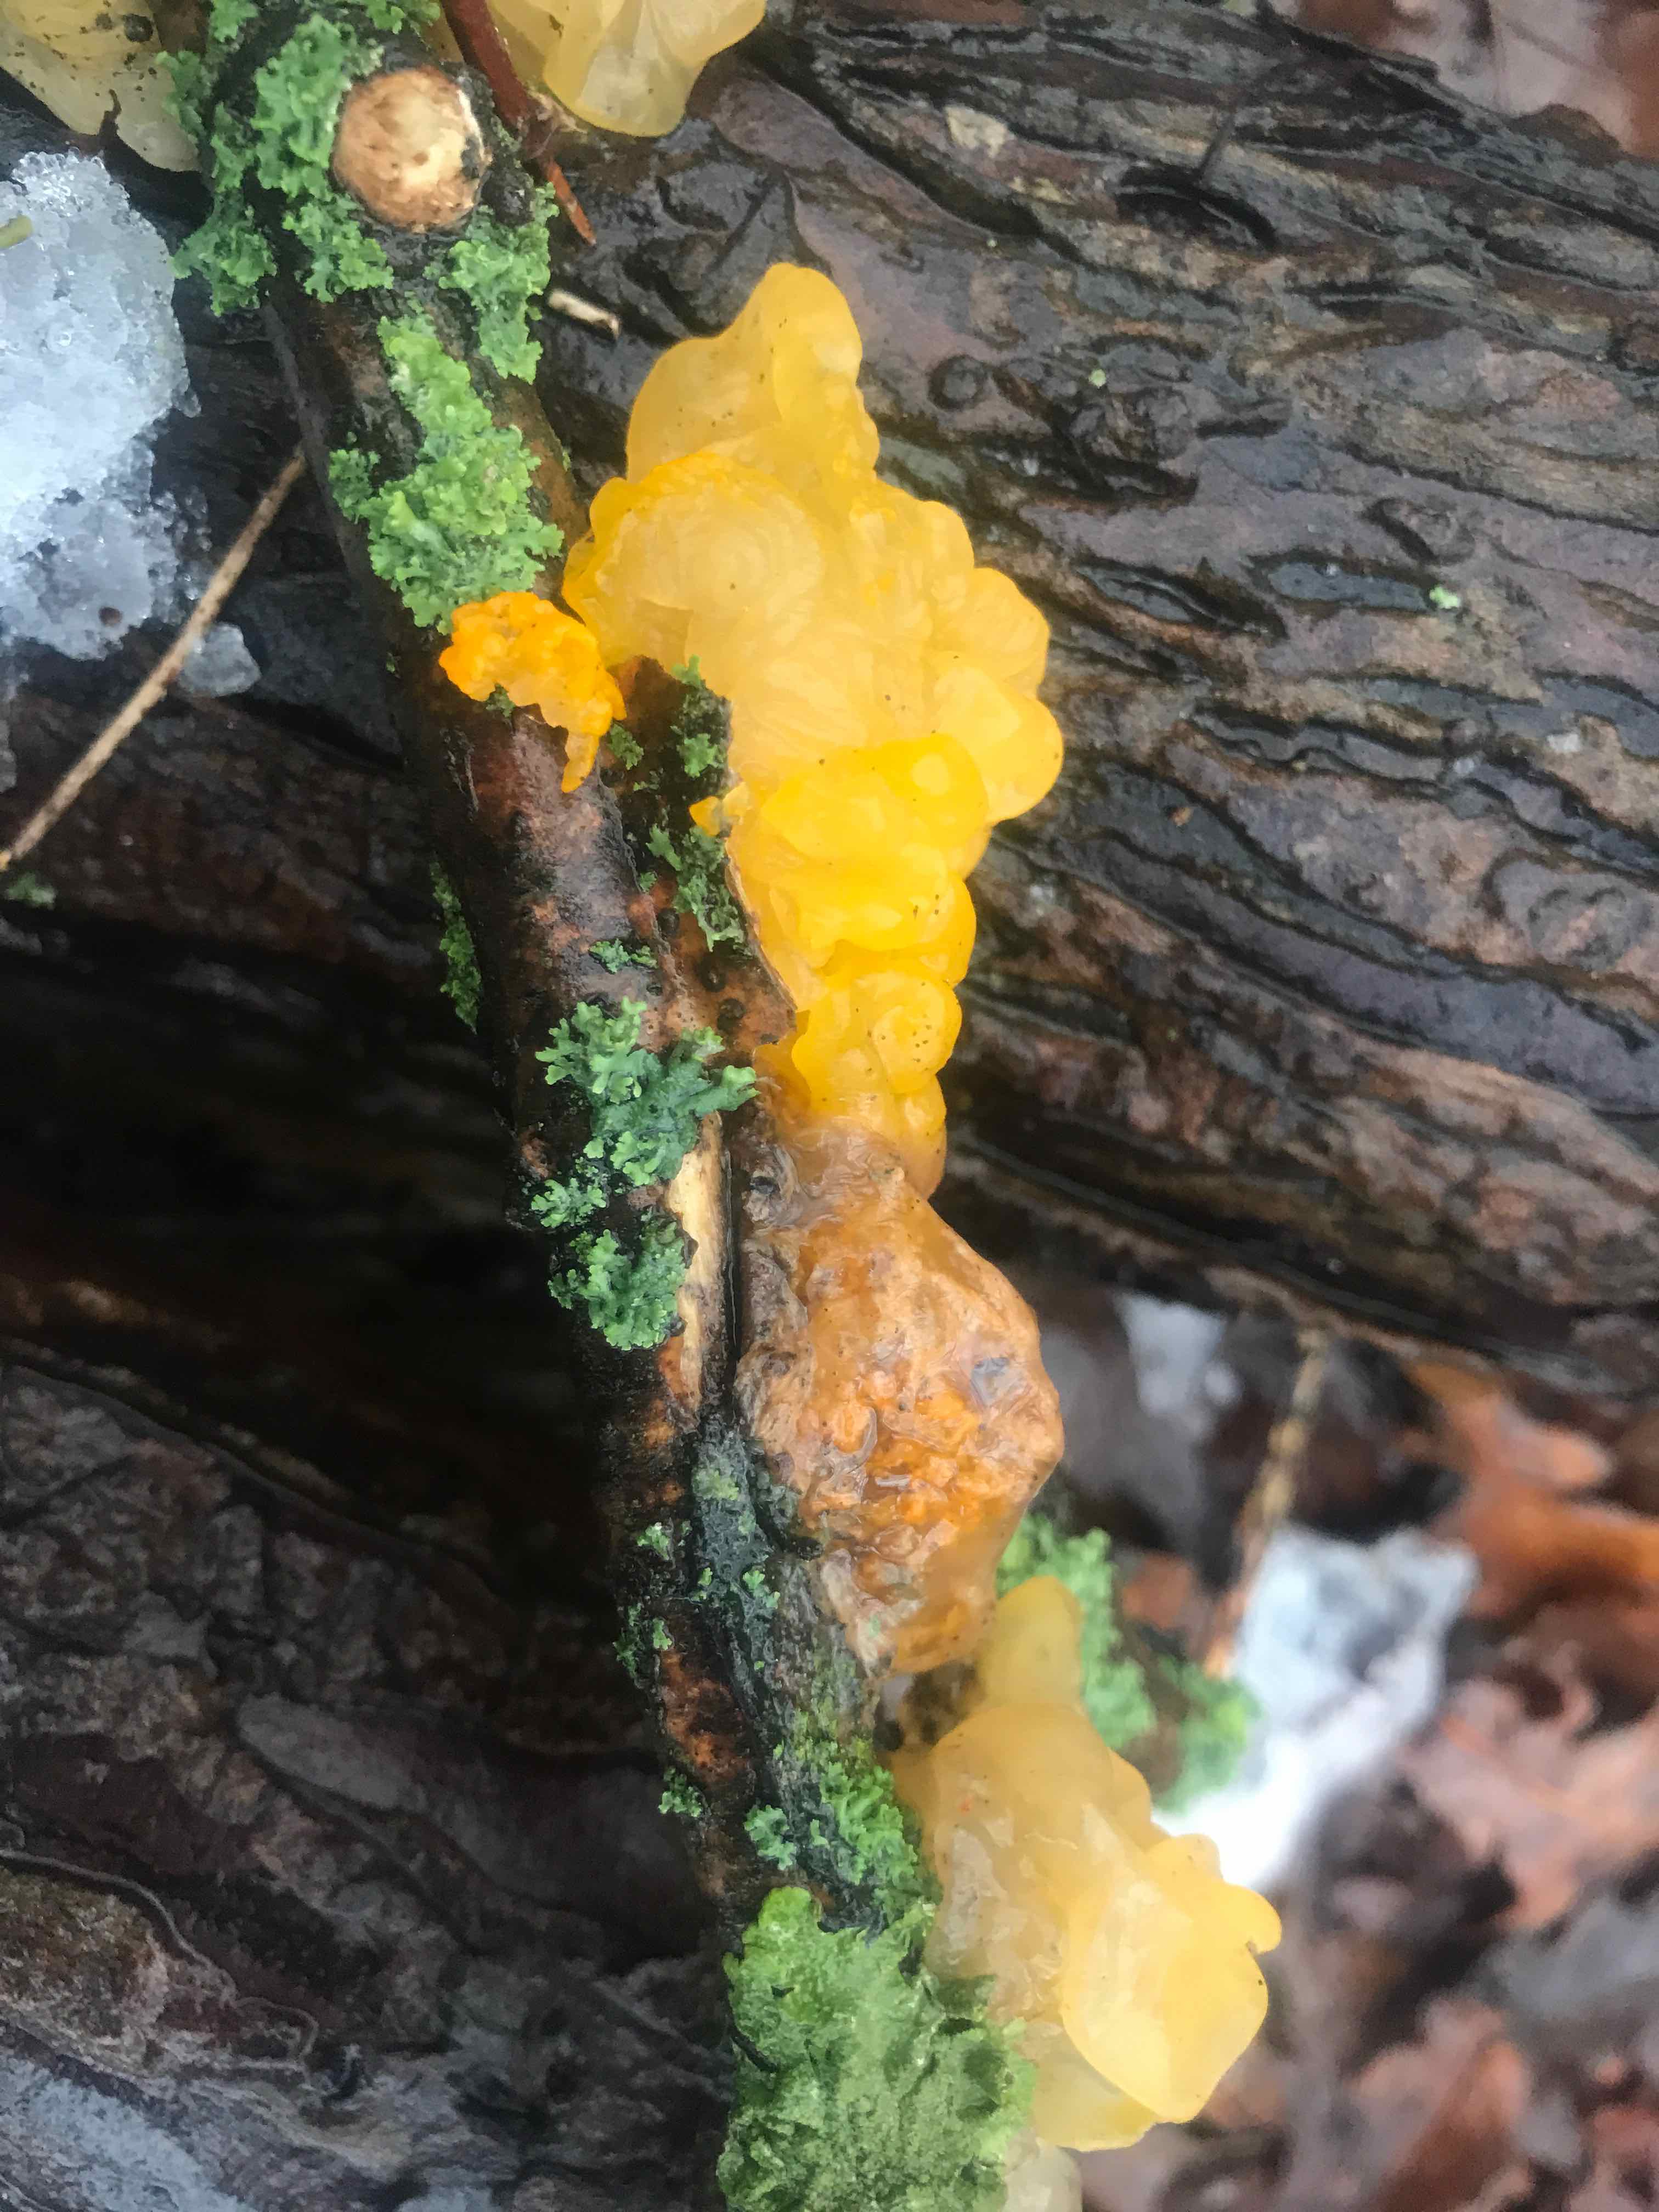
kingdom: Fungi
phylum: Basidiomycota
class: Tremellomycetes
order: Tremellales
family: Tremellaceae
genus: Tremella
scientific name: Tremella mesenterica
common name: gul bævresvamp
